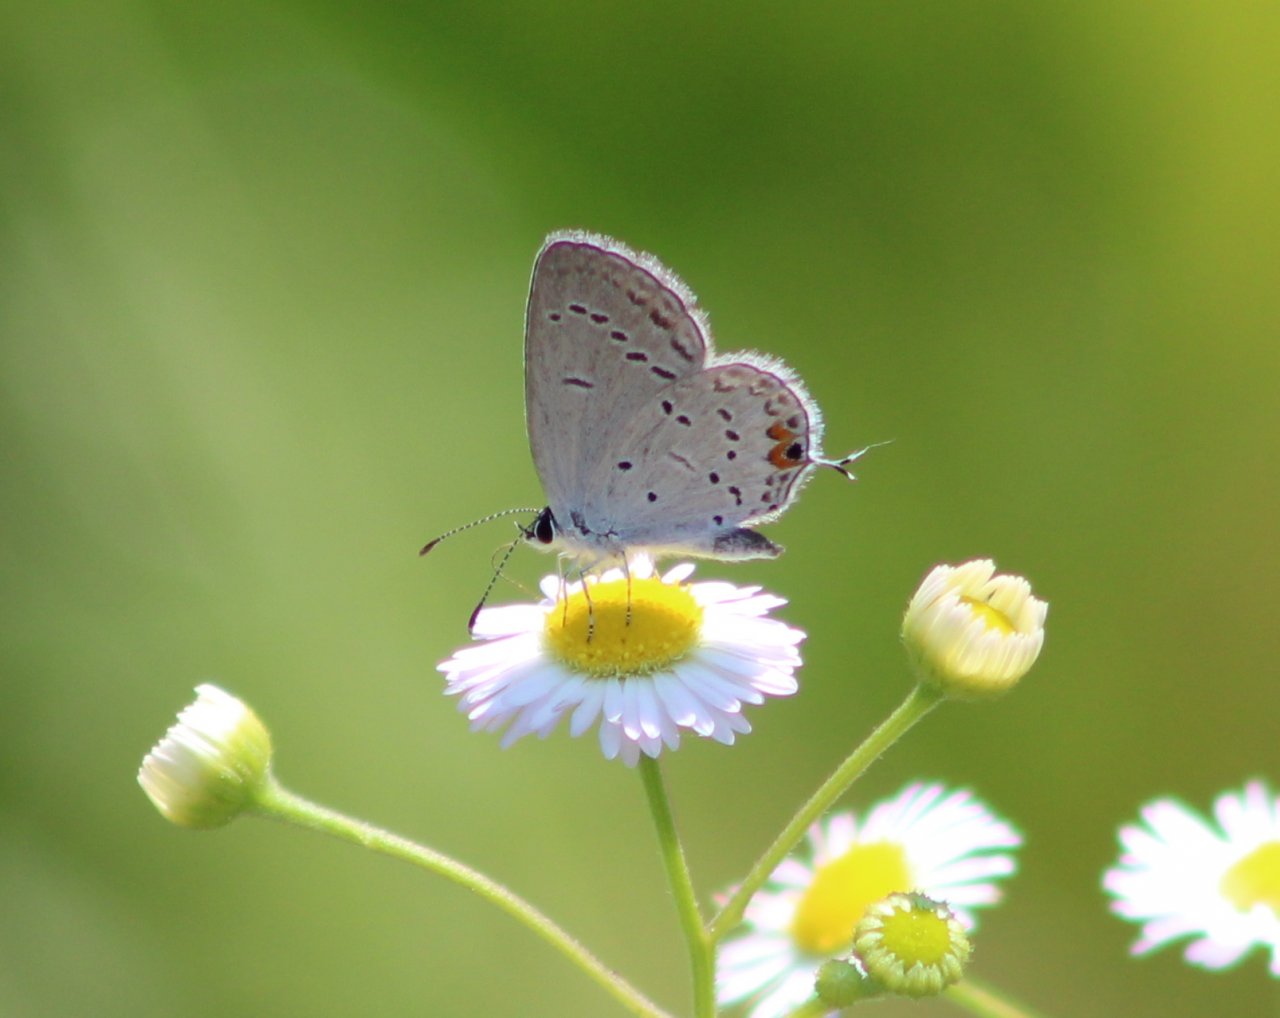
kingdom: Animalia
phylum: Arthropoda
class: Insecta
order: Lepidoptera
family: Lycaenidae
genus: Elkalyce
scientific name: Elkalyce comyntas
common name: Eastern Tailed-Blue
